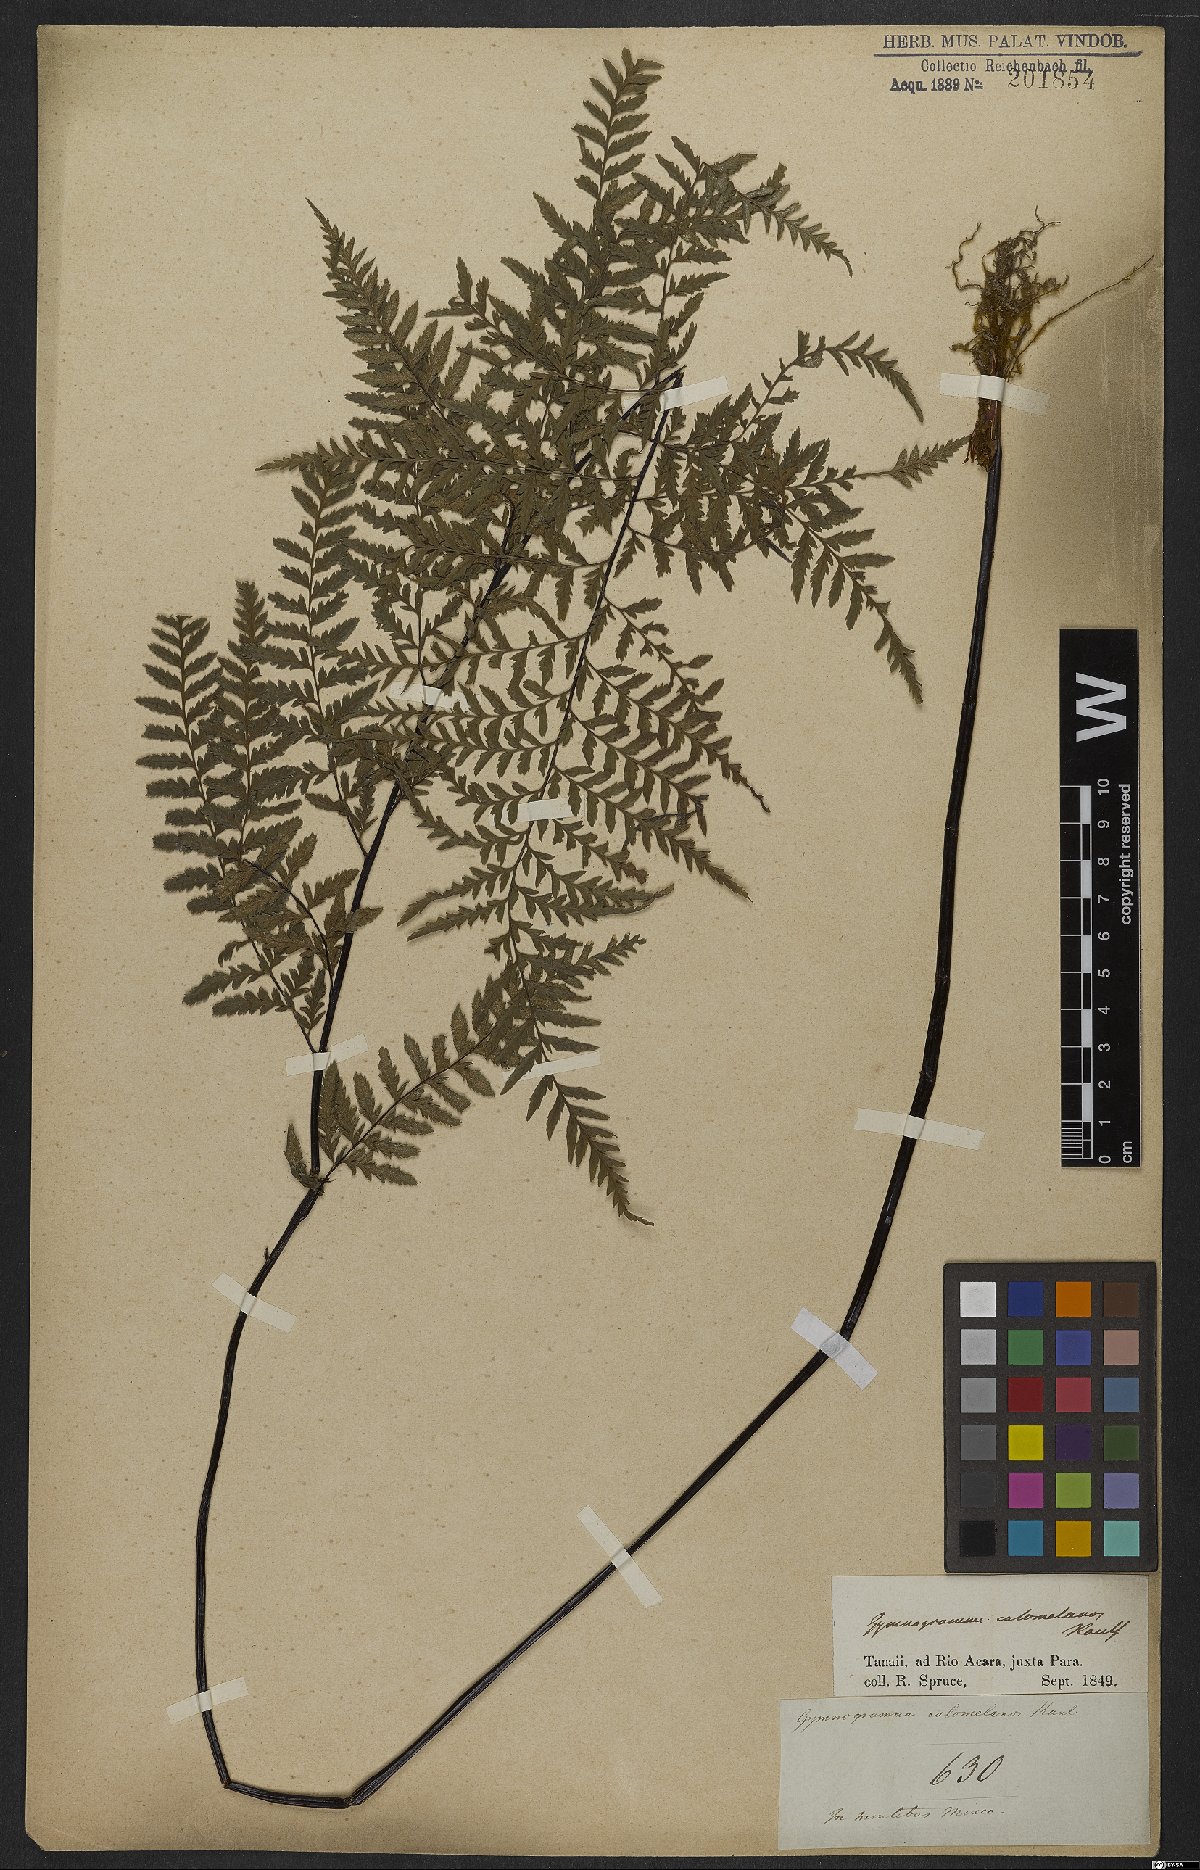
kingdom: Plantae
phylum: Tracheophyta
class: Polypodiopsida
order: Polypodiales
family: Pteridaceae
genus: Pityrogramma
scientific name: Pityrogramma calomelanos
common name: Dixie silverback fern
